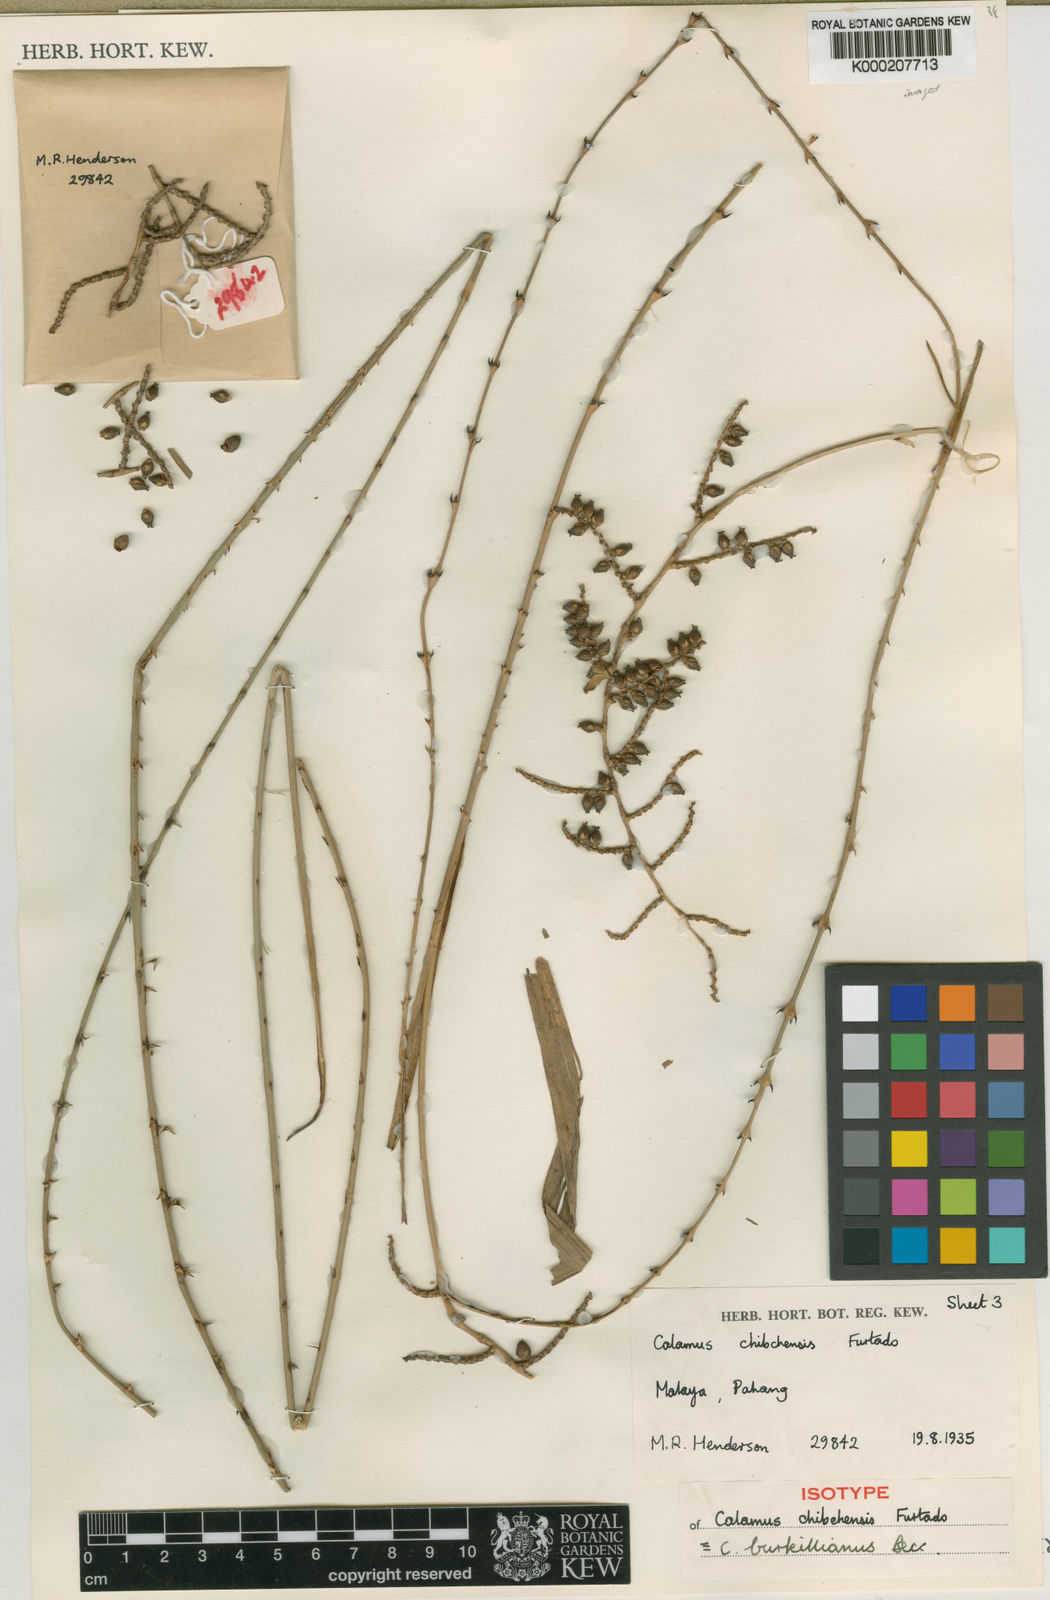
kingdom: Plantae
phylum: Tracheophyta
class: Liliopsida
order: Arecales
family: Arecaceae
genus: Calamus
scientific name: Calamus burkillianus
